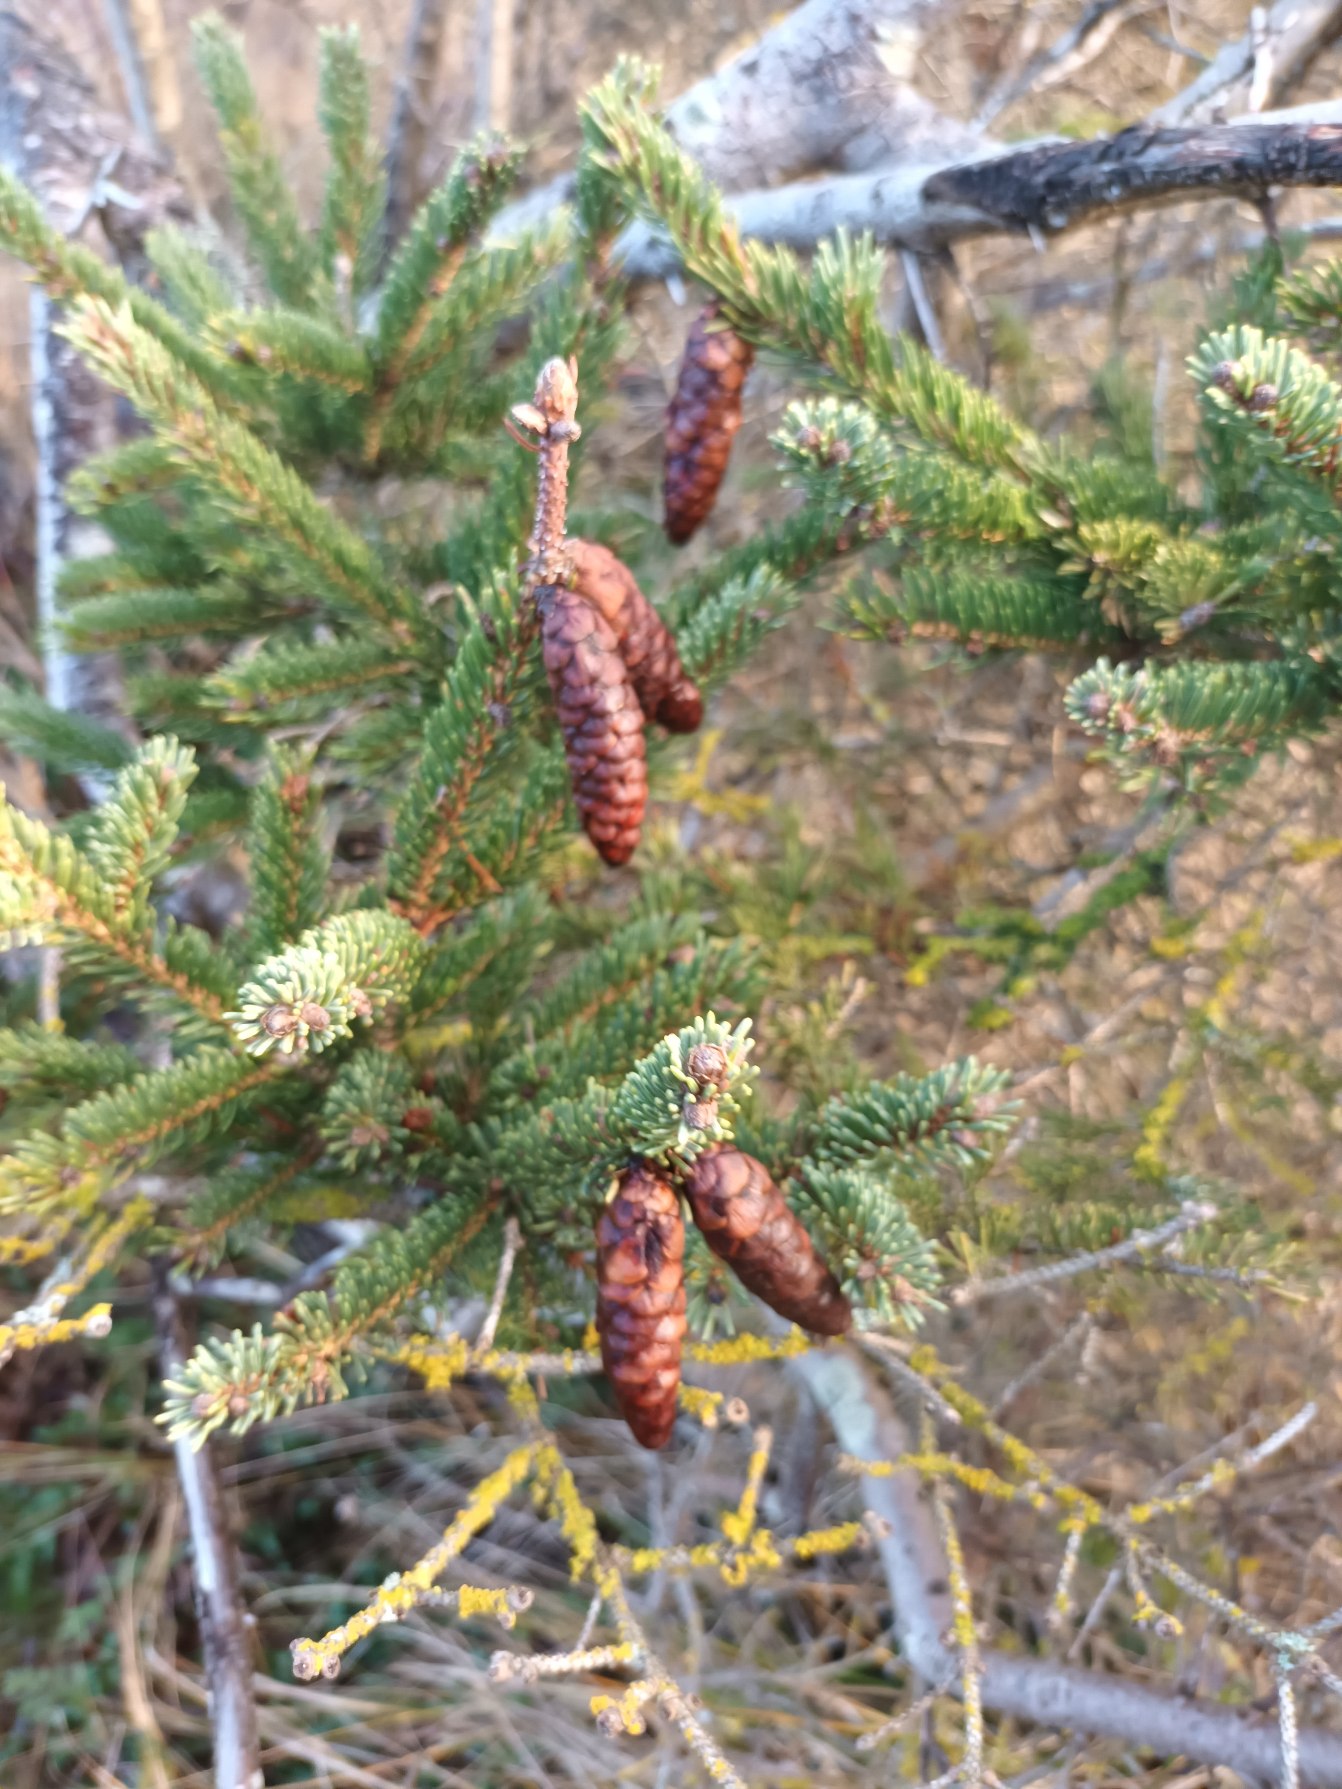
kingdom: Plantae
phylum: Tracheophyta
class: Pinopsida
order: Pinales
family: Pinaceae
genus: Picea
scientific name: Picea glauca
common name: Hvid-gran
